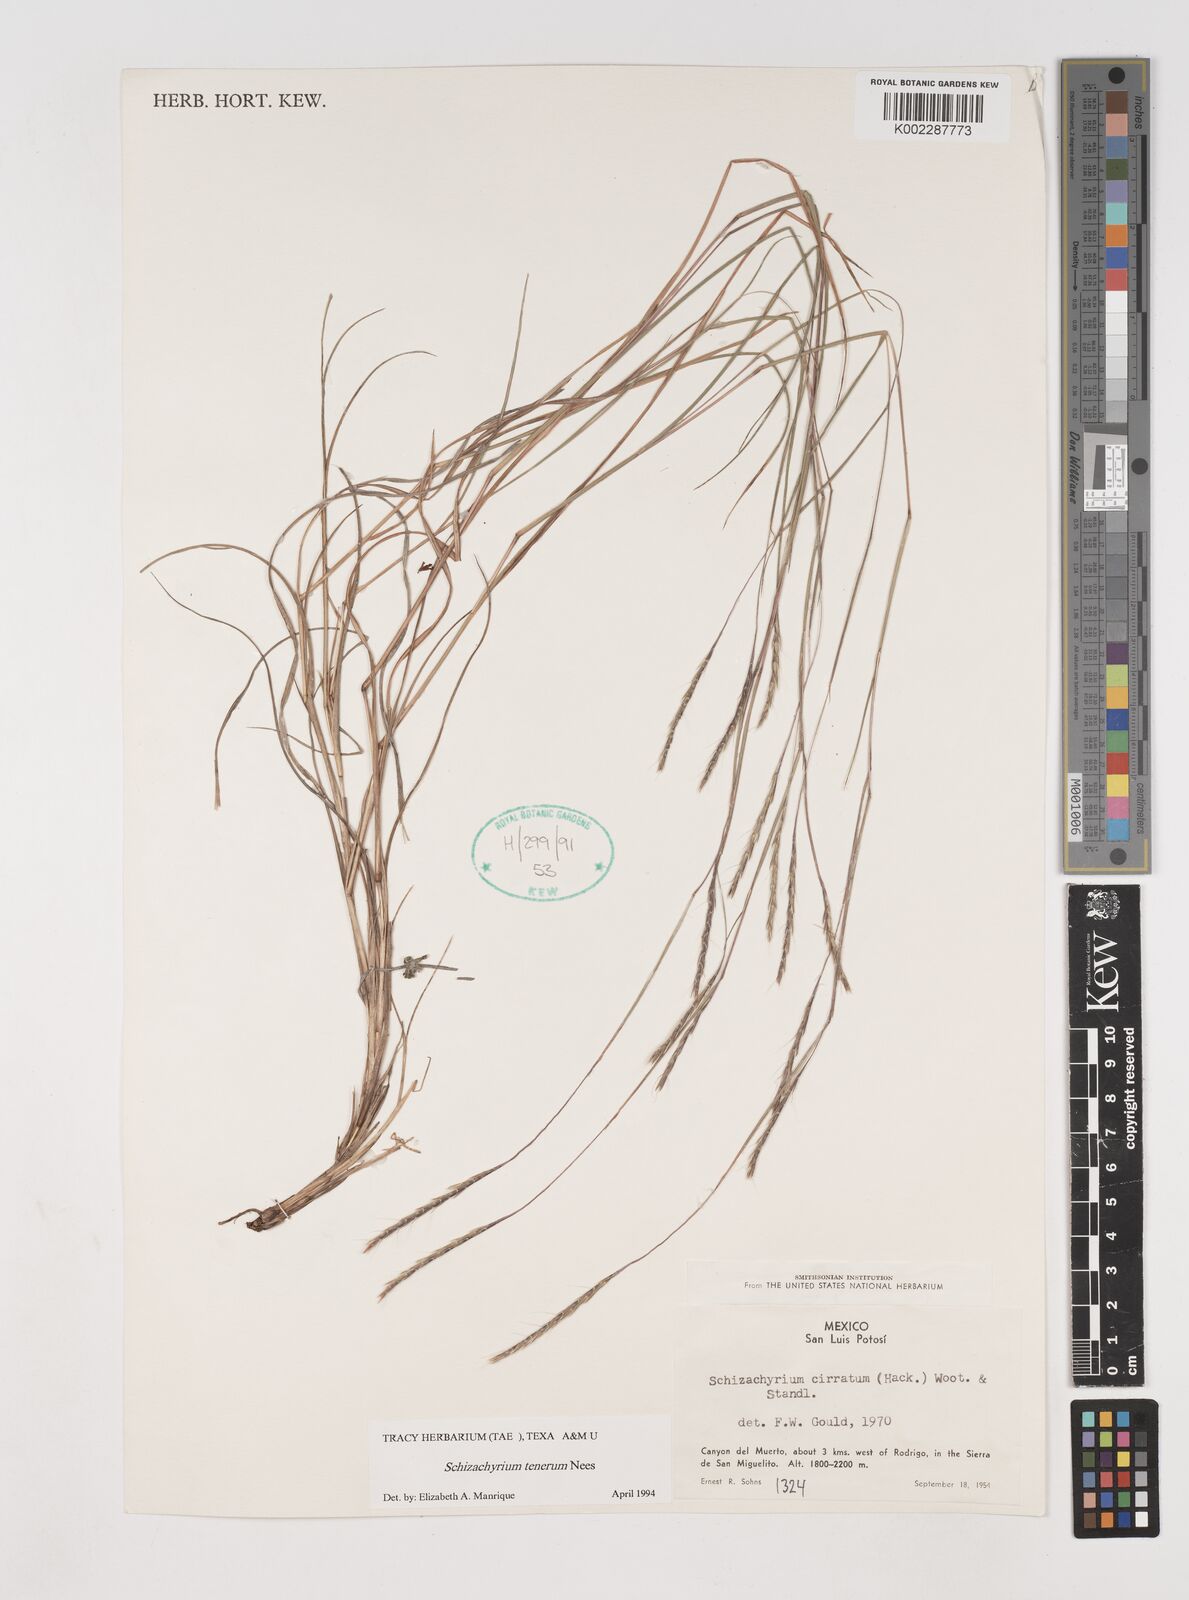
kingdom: Plantae
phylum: Tracheophyta
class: Liliopsida
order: Poales
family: Poaceae
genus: Andropogon
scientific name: Andropogon tener
